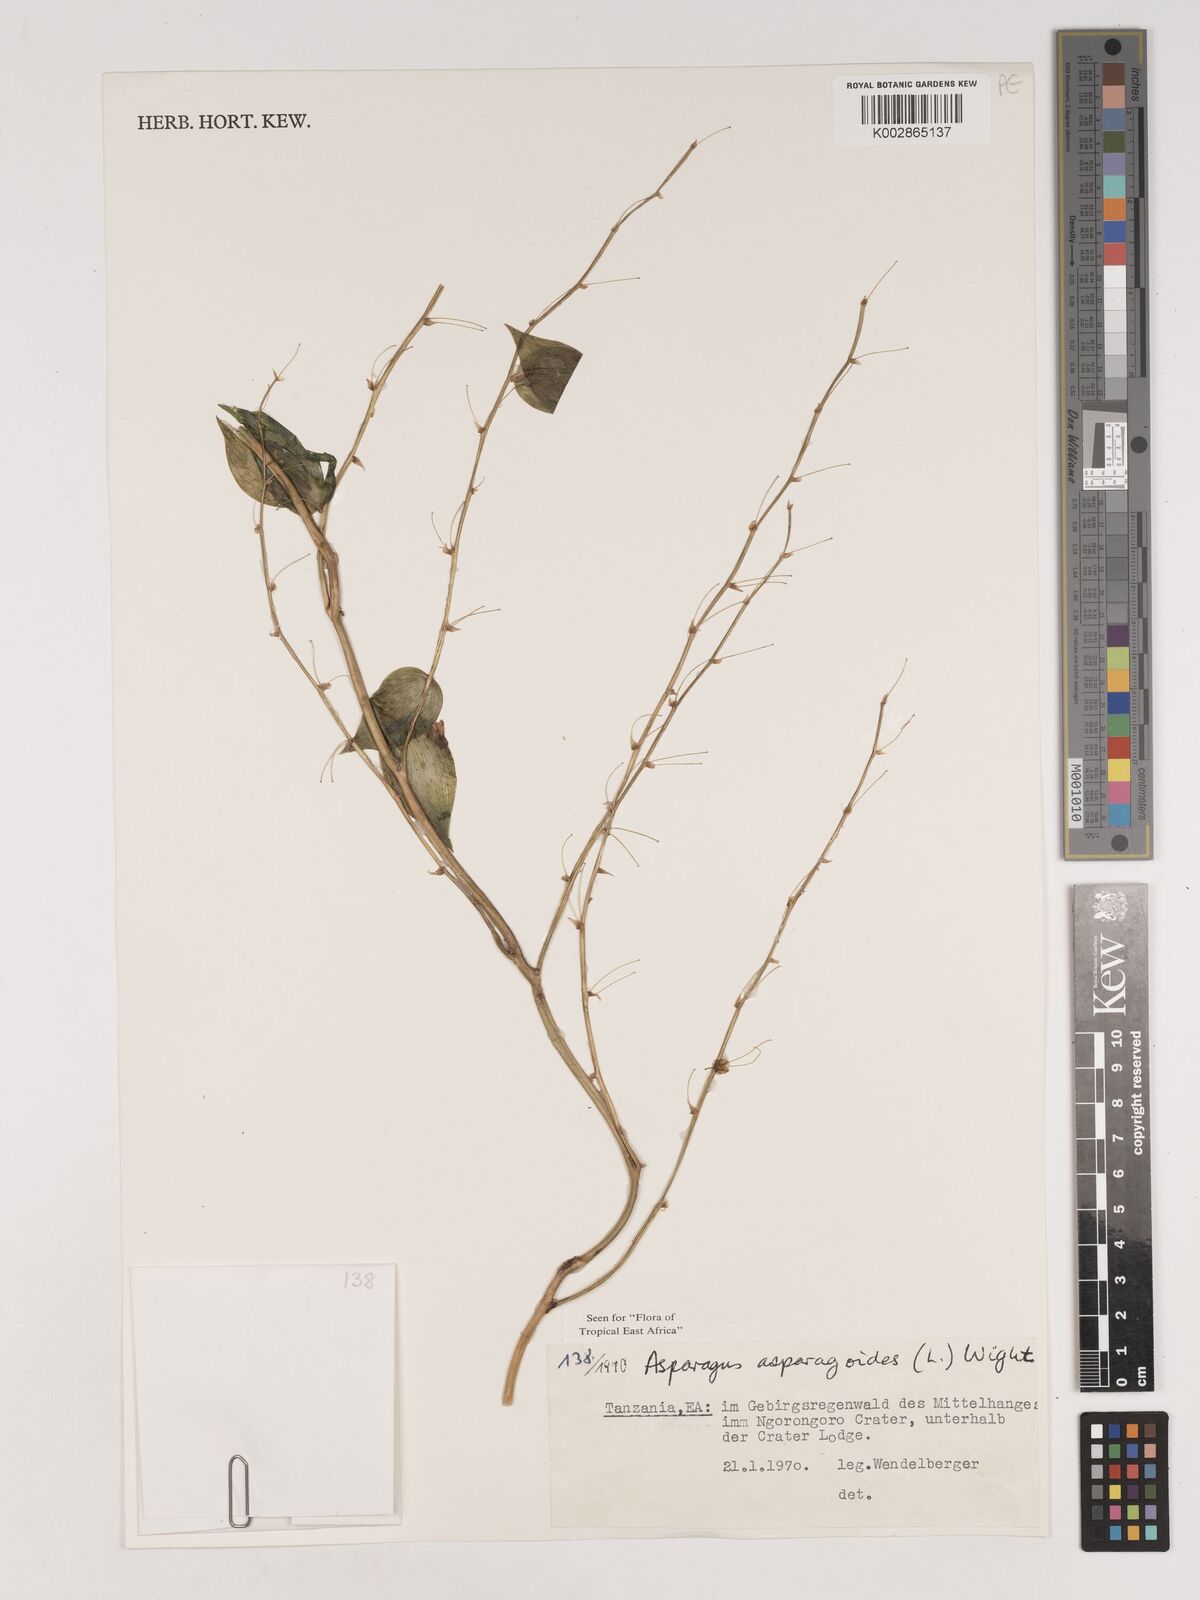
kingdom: Plantae
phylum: Tracheophyta
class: Liliopsida
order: Asparagales
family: Asparagaceae
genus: Asparagus
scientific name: Asparagus asparagoides
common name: African asparagus fern
